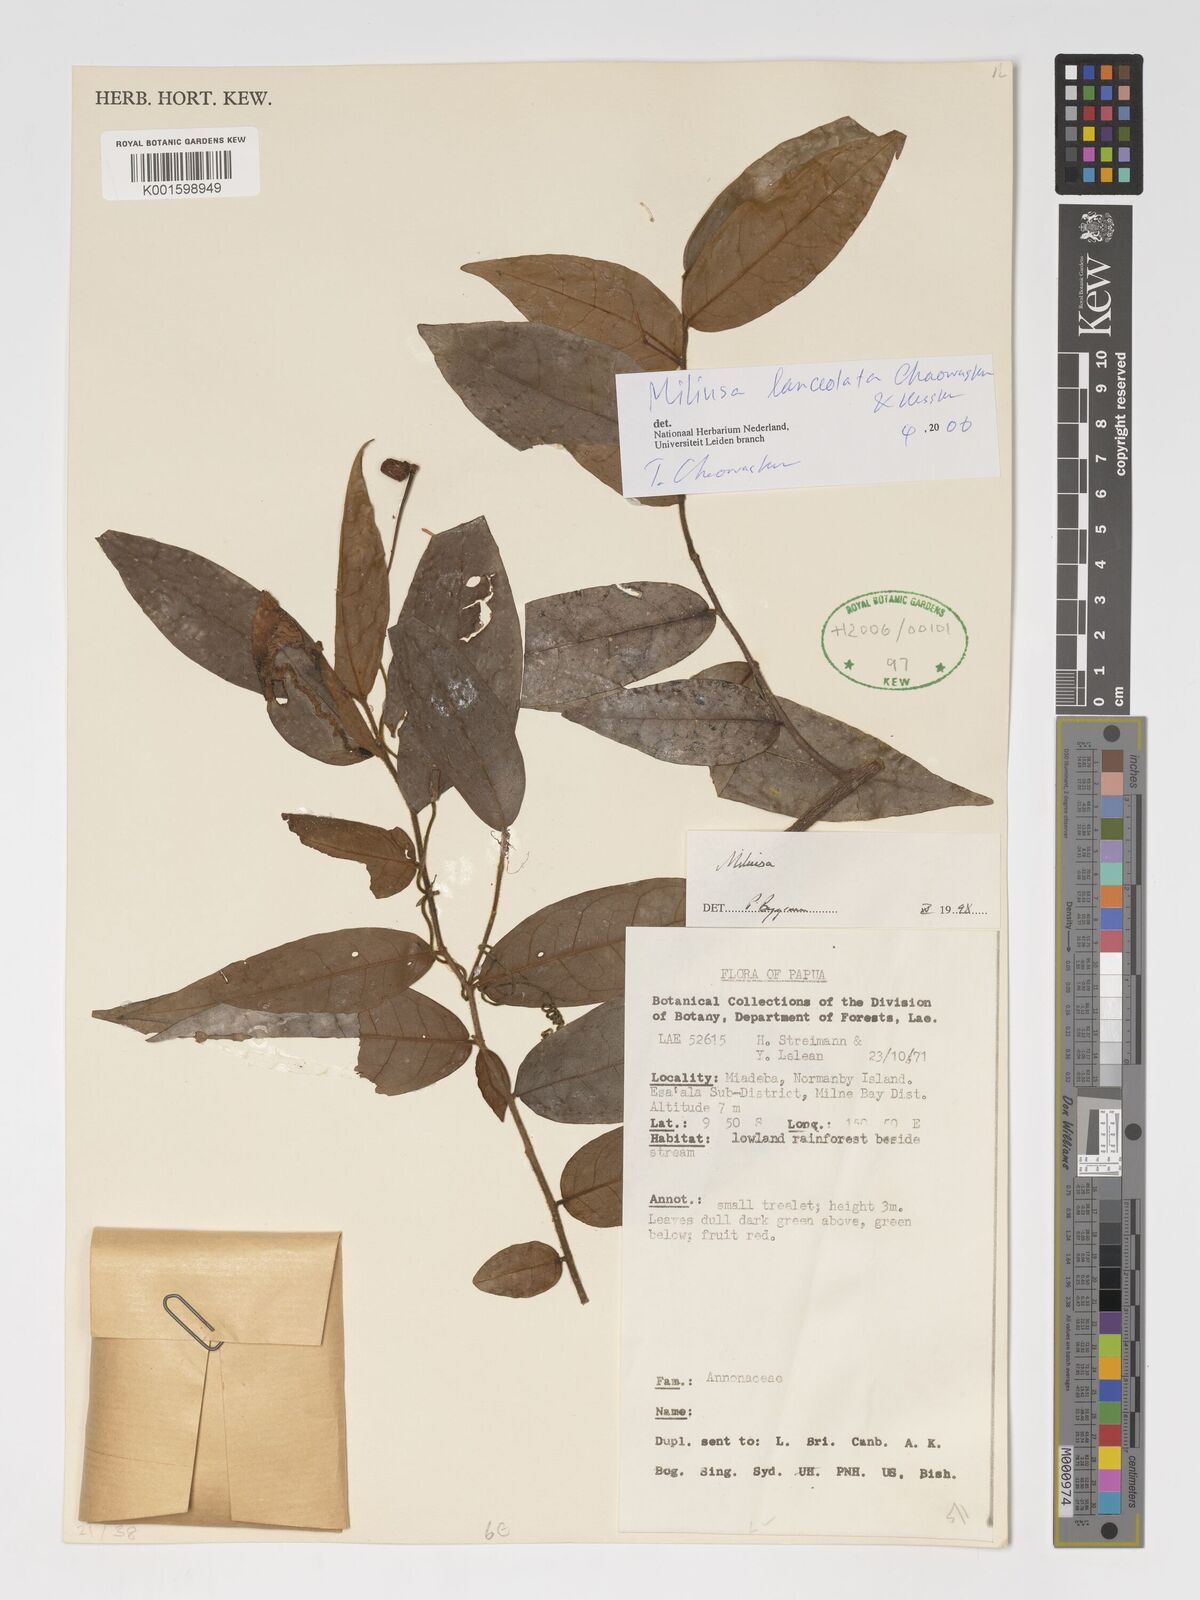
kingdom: Plantae
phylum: Tracheophyta
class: Magnoliopsida
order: Magnoliales
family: Annonaceae
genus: Miliusa
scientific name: Miliusa lanceolata
